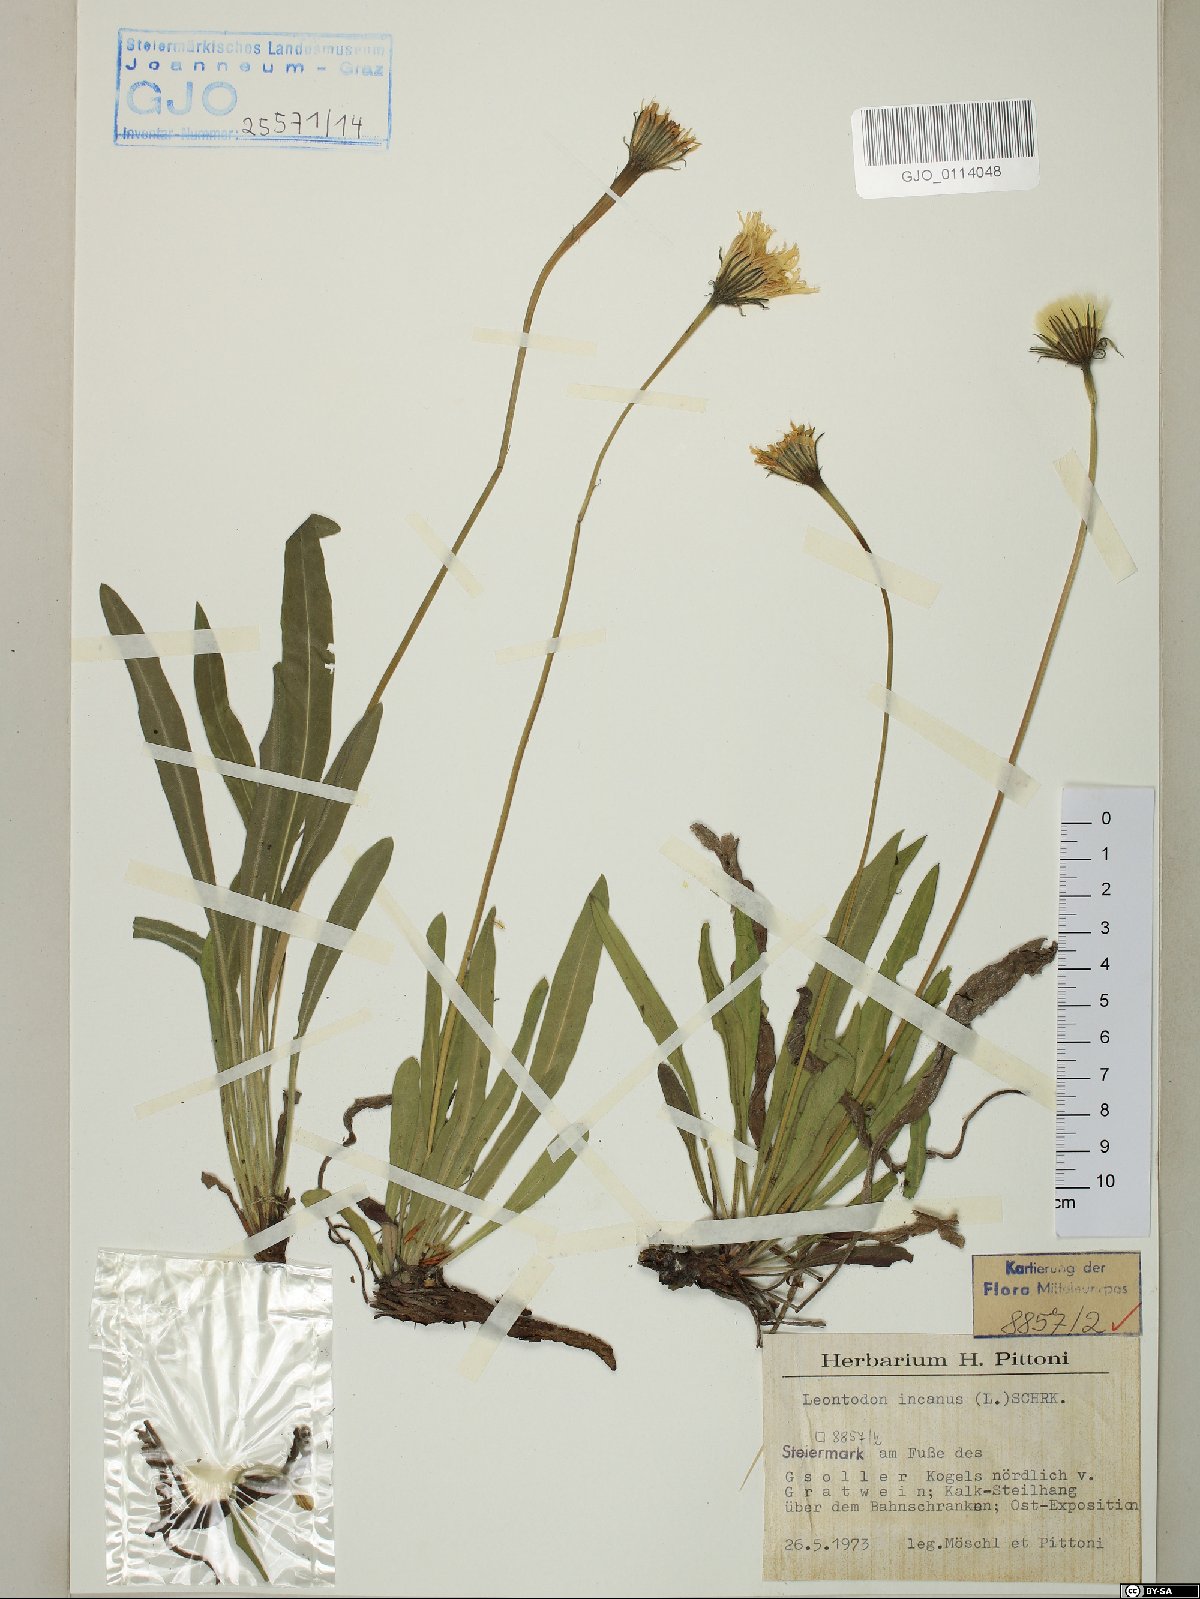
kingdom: Plantae
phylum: Tracheophyta
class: Magnoliopsida
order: Asterales
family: Asteraceae
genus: Leontodon
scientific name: Leontodon incanus
